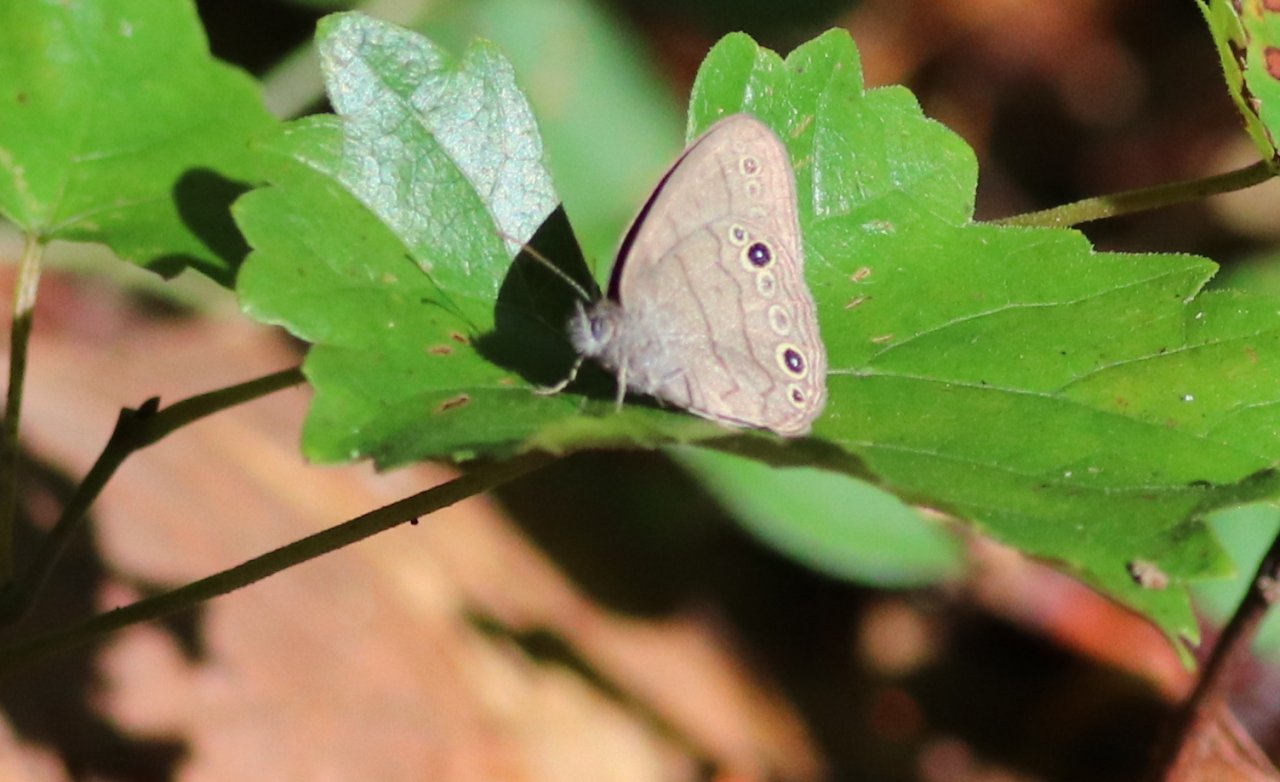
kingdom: Animalia
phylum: Arthropoda
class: Insecta
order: Lepidoptera
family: Nymphalidae
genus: Hermeuptychia
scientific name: Hermeuptychia hermes
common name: Carolina Satyr
